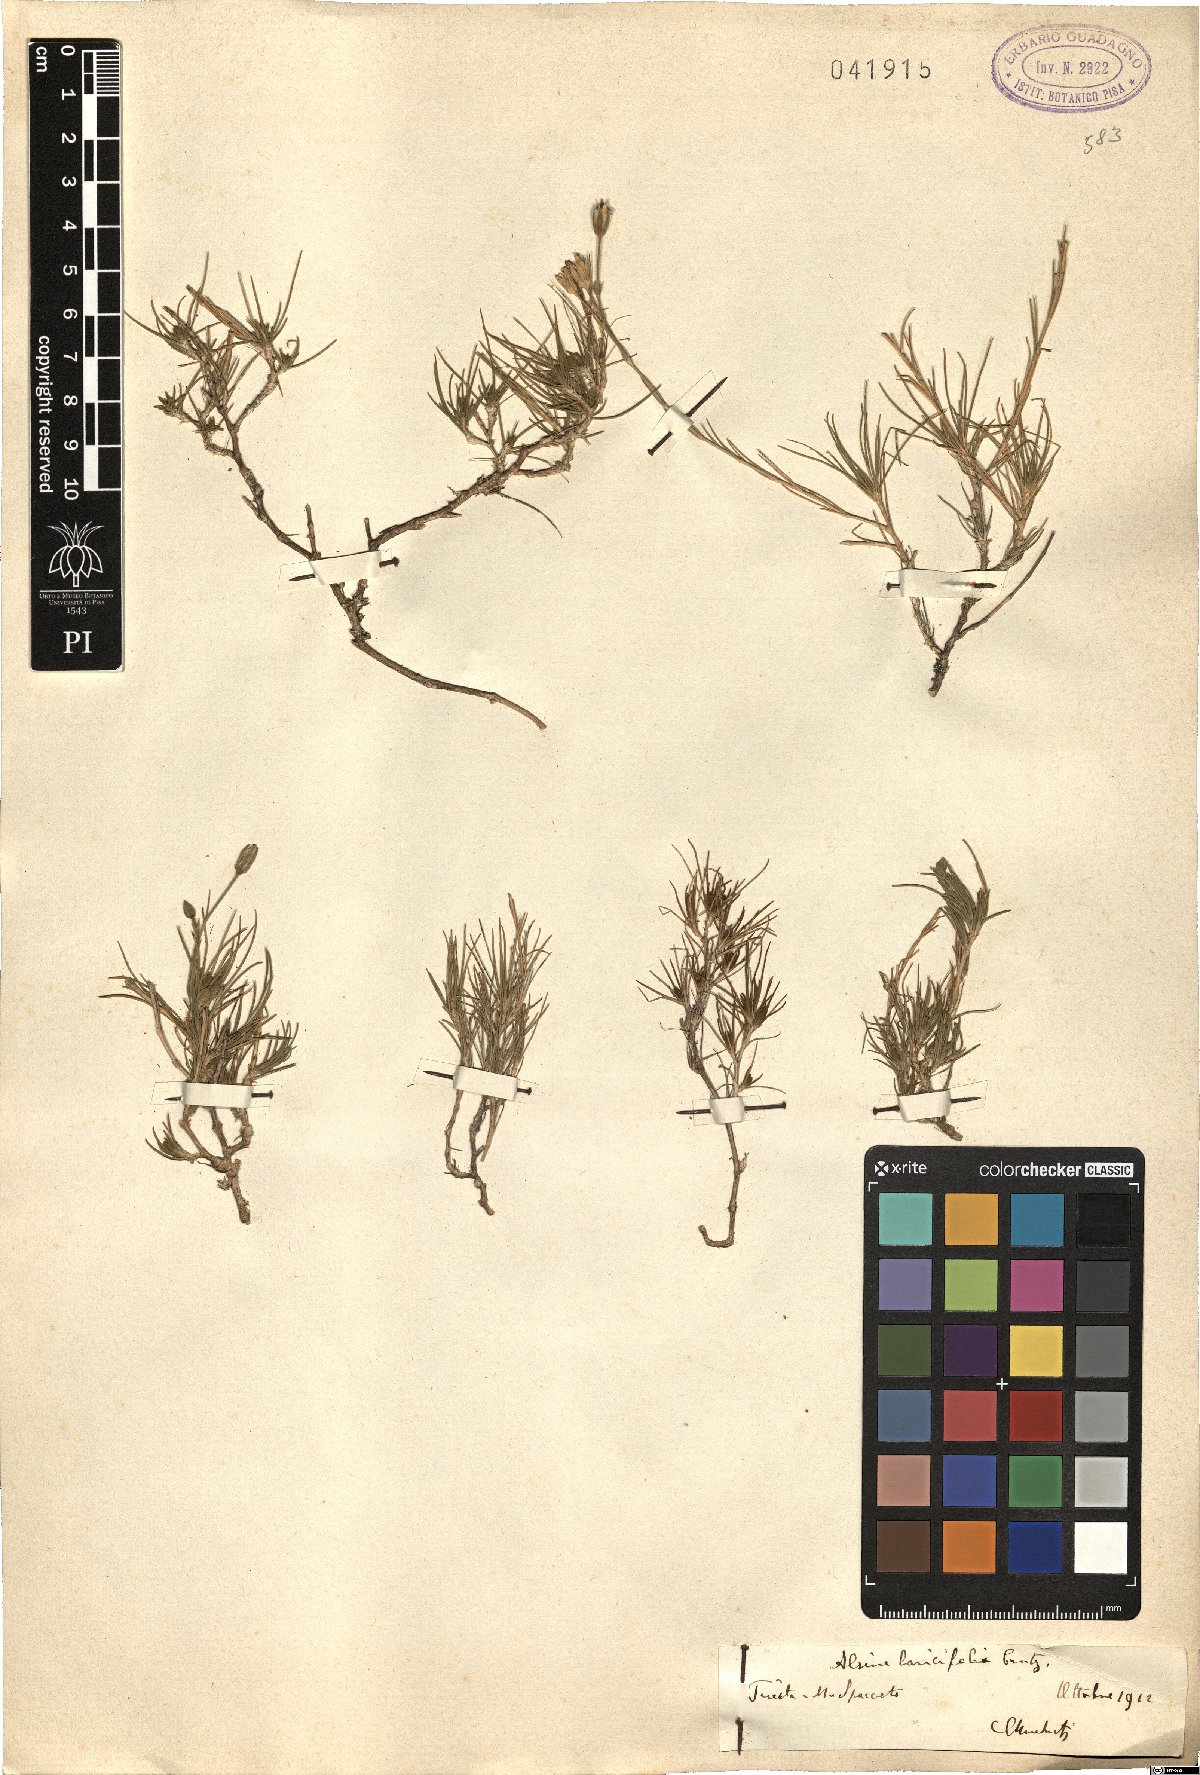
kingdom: Plantae
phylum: Tracheophyta
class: Magnoliopsida
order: Caryophyllales
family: Caryophyllaceae
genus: Cherleria
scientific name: Cherleria laricifolia
